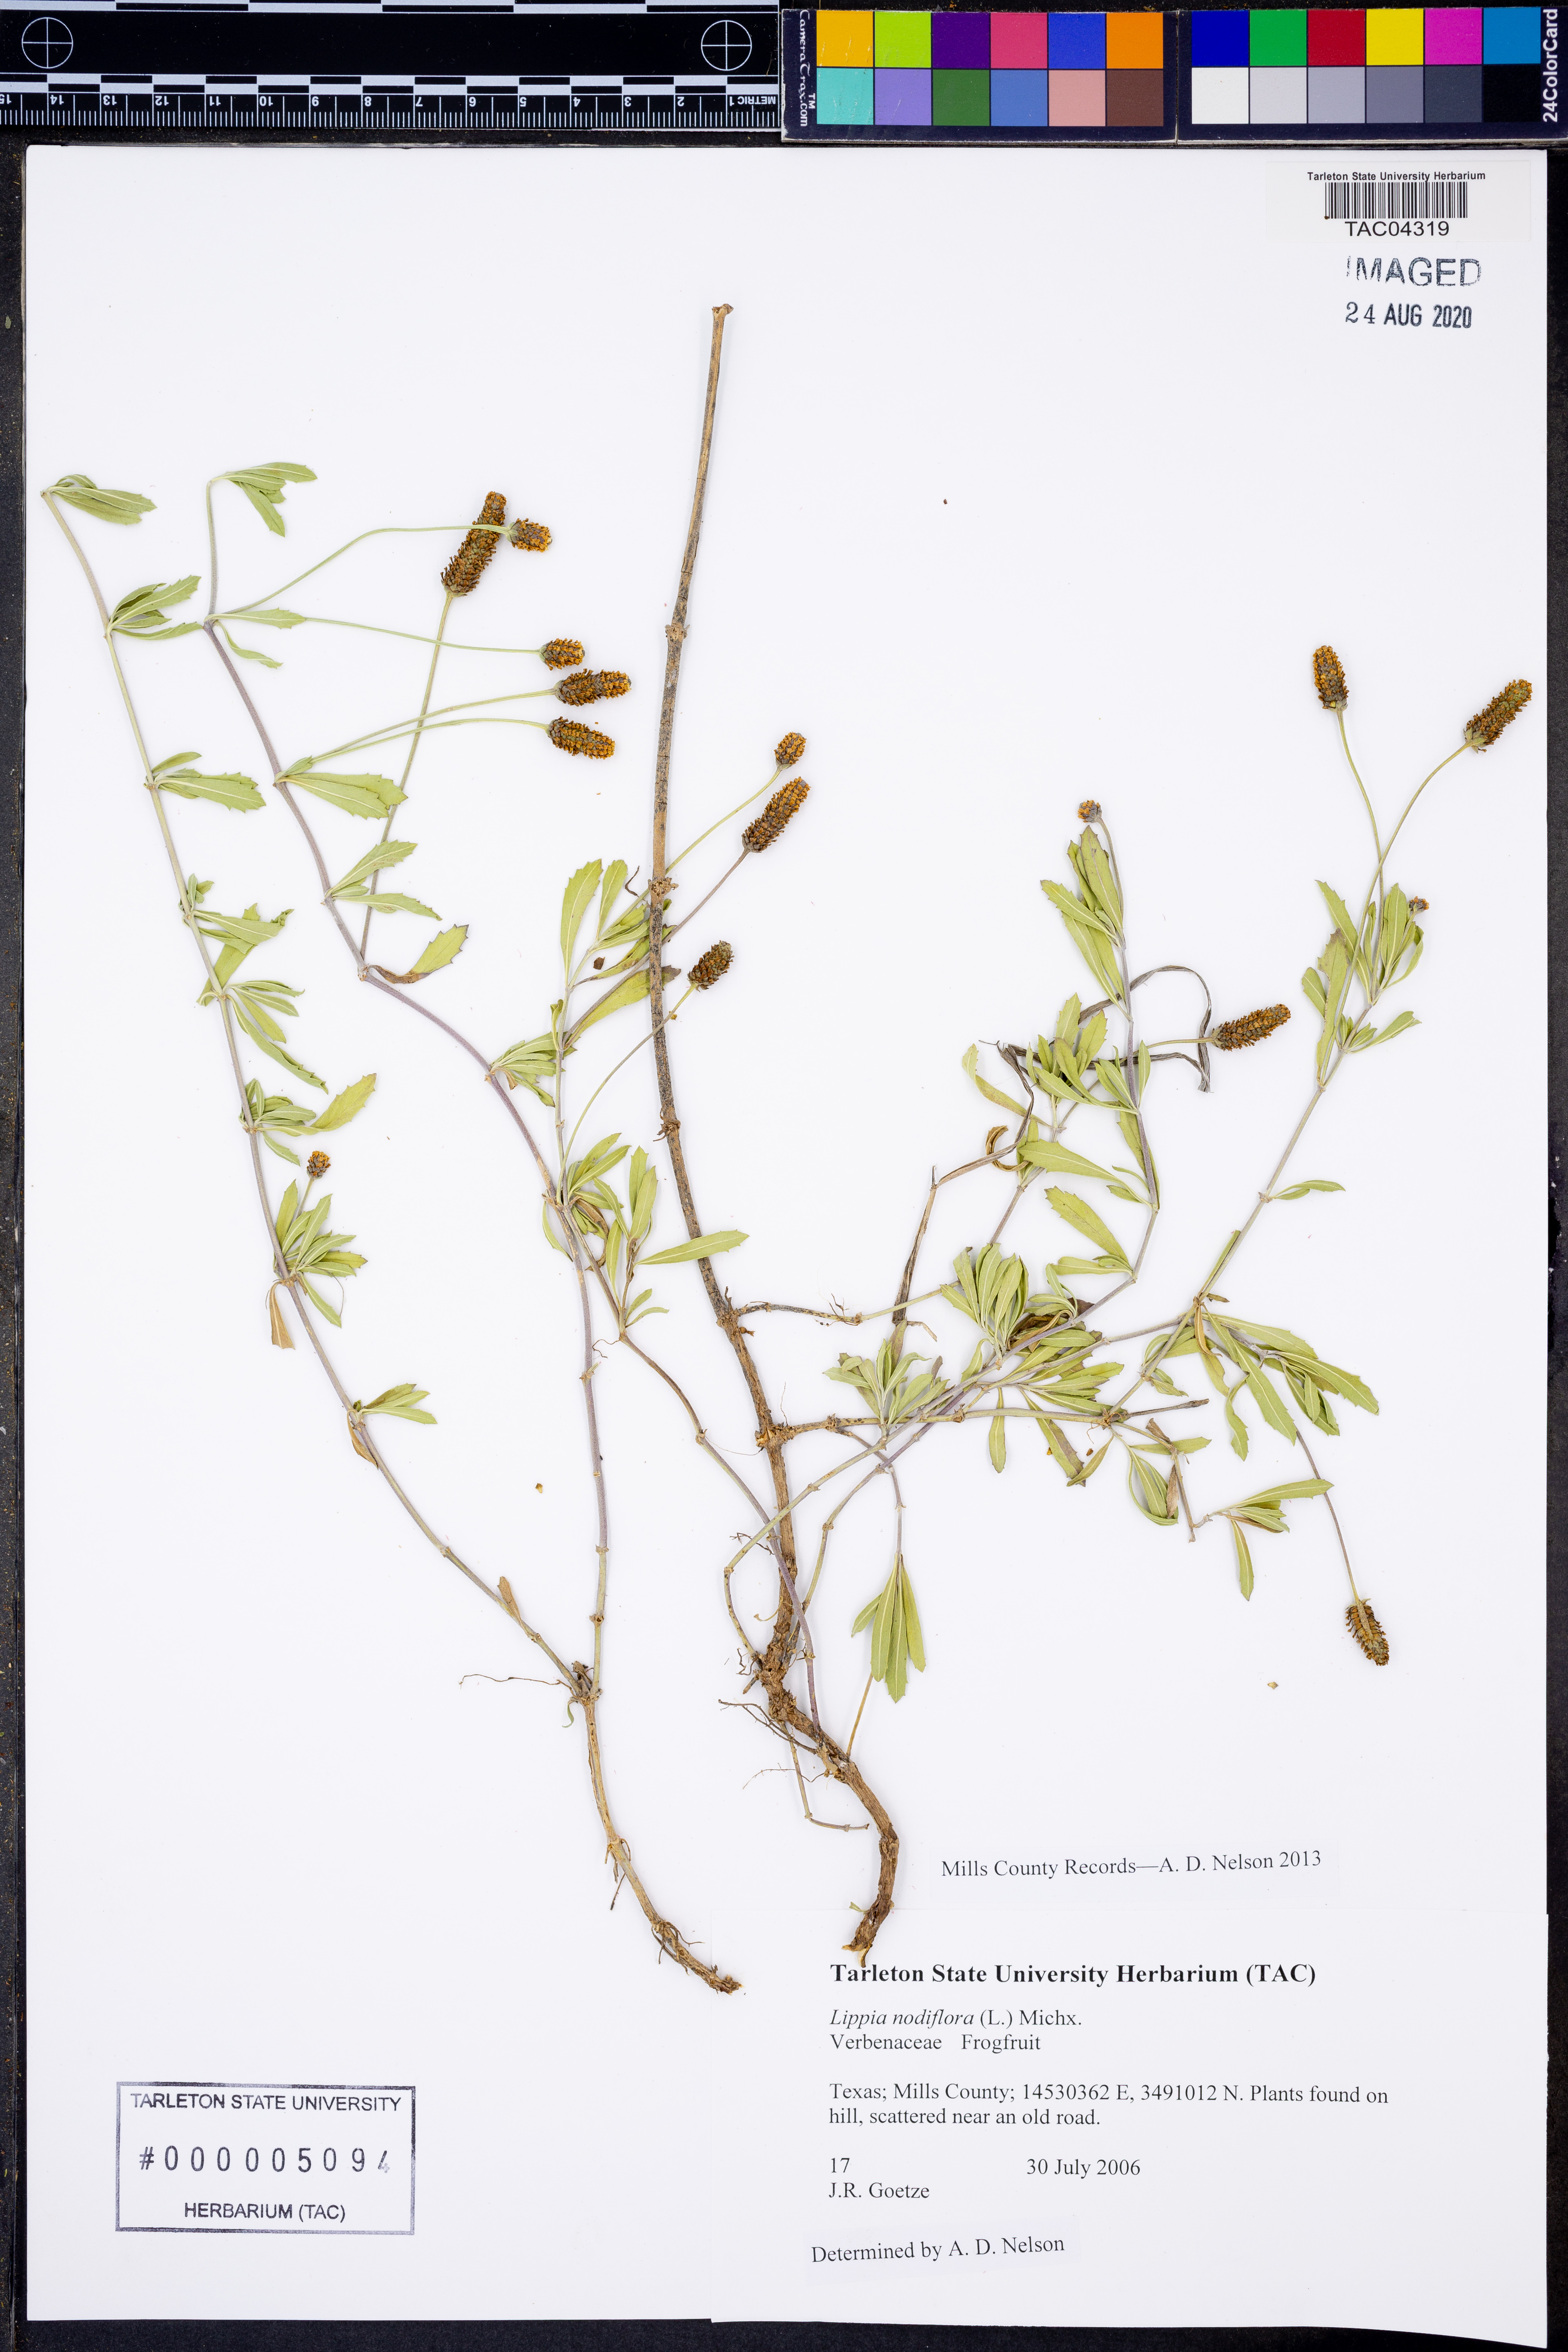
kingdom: Plantae
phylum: Tracheophyta
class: Magnoliopsida
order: Lamiales
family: Verbenaceae
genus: Phyla
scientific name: Phyla nodiflora
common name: Frogfruit
